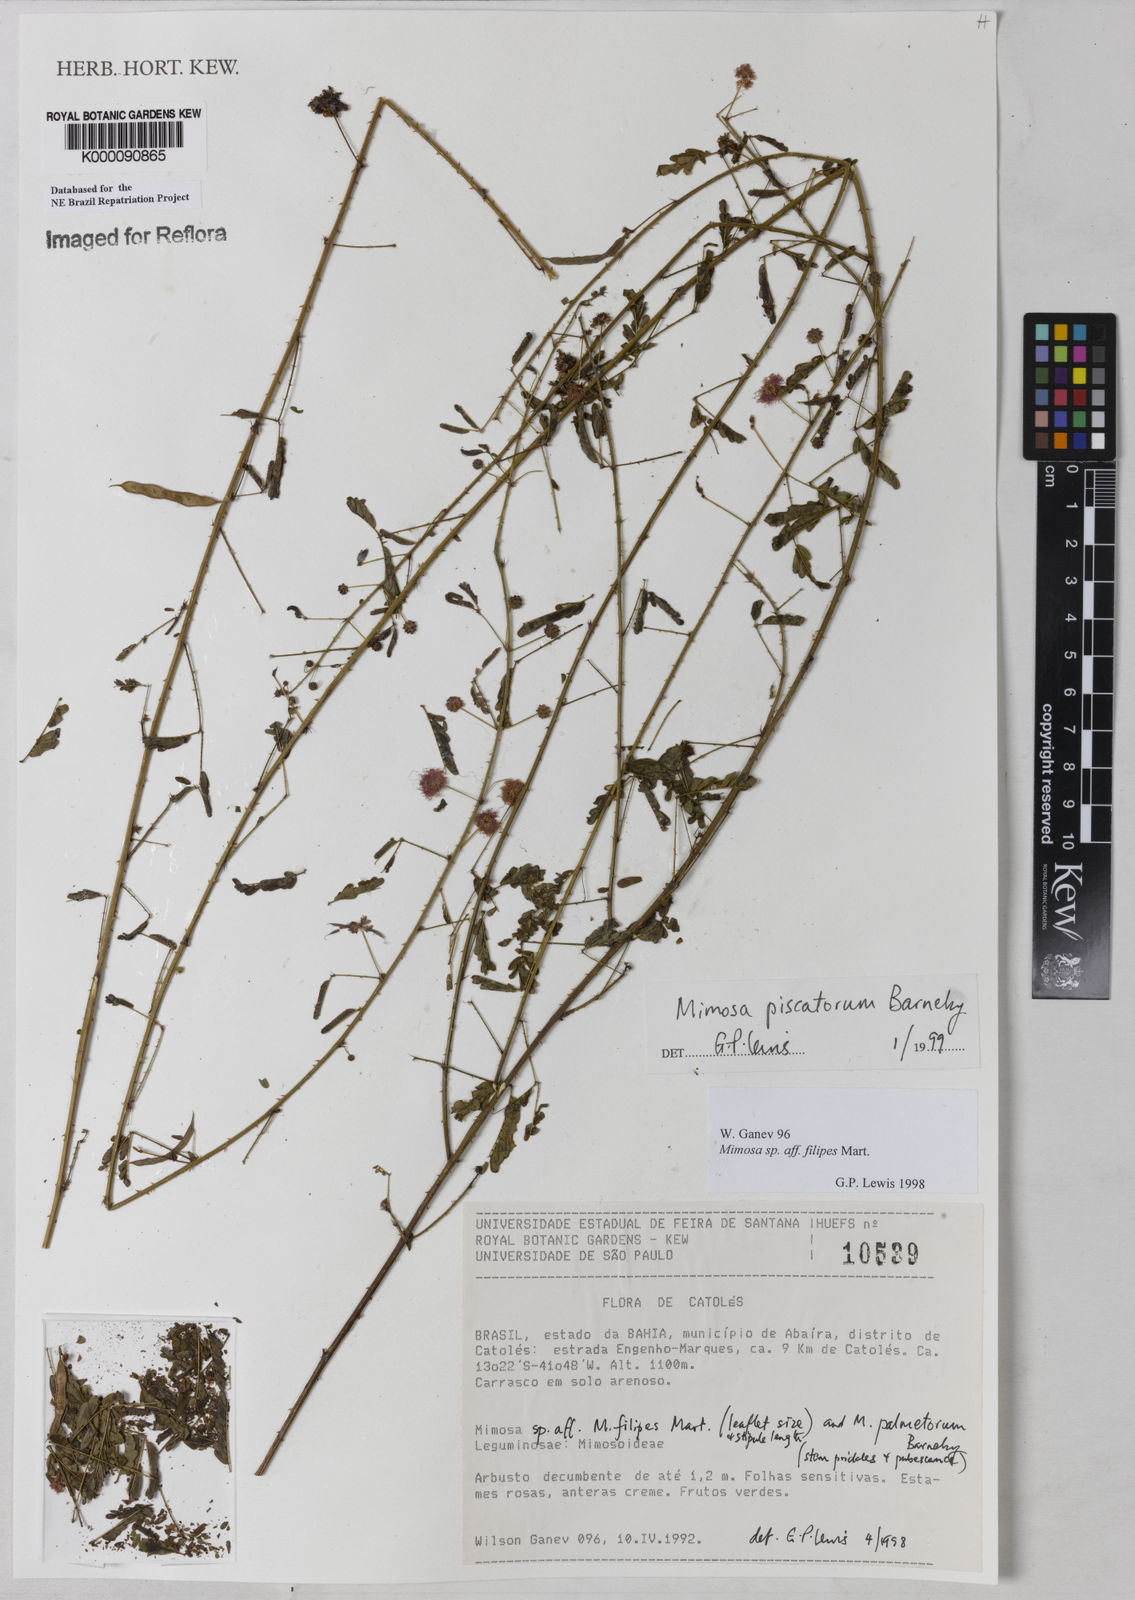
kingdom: Plantae
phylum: Tracheophyta
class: Magnoliopsida
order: Fabales
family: Fabaceae
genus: Mimosa
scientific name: Mimosa piscatorum
